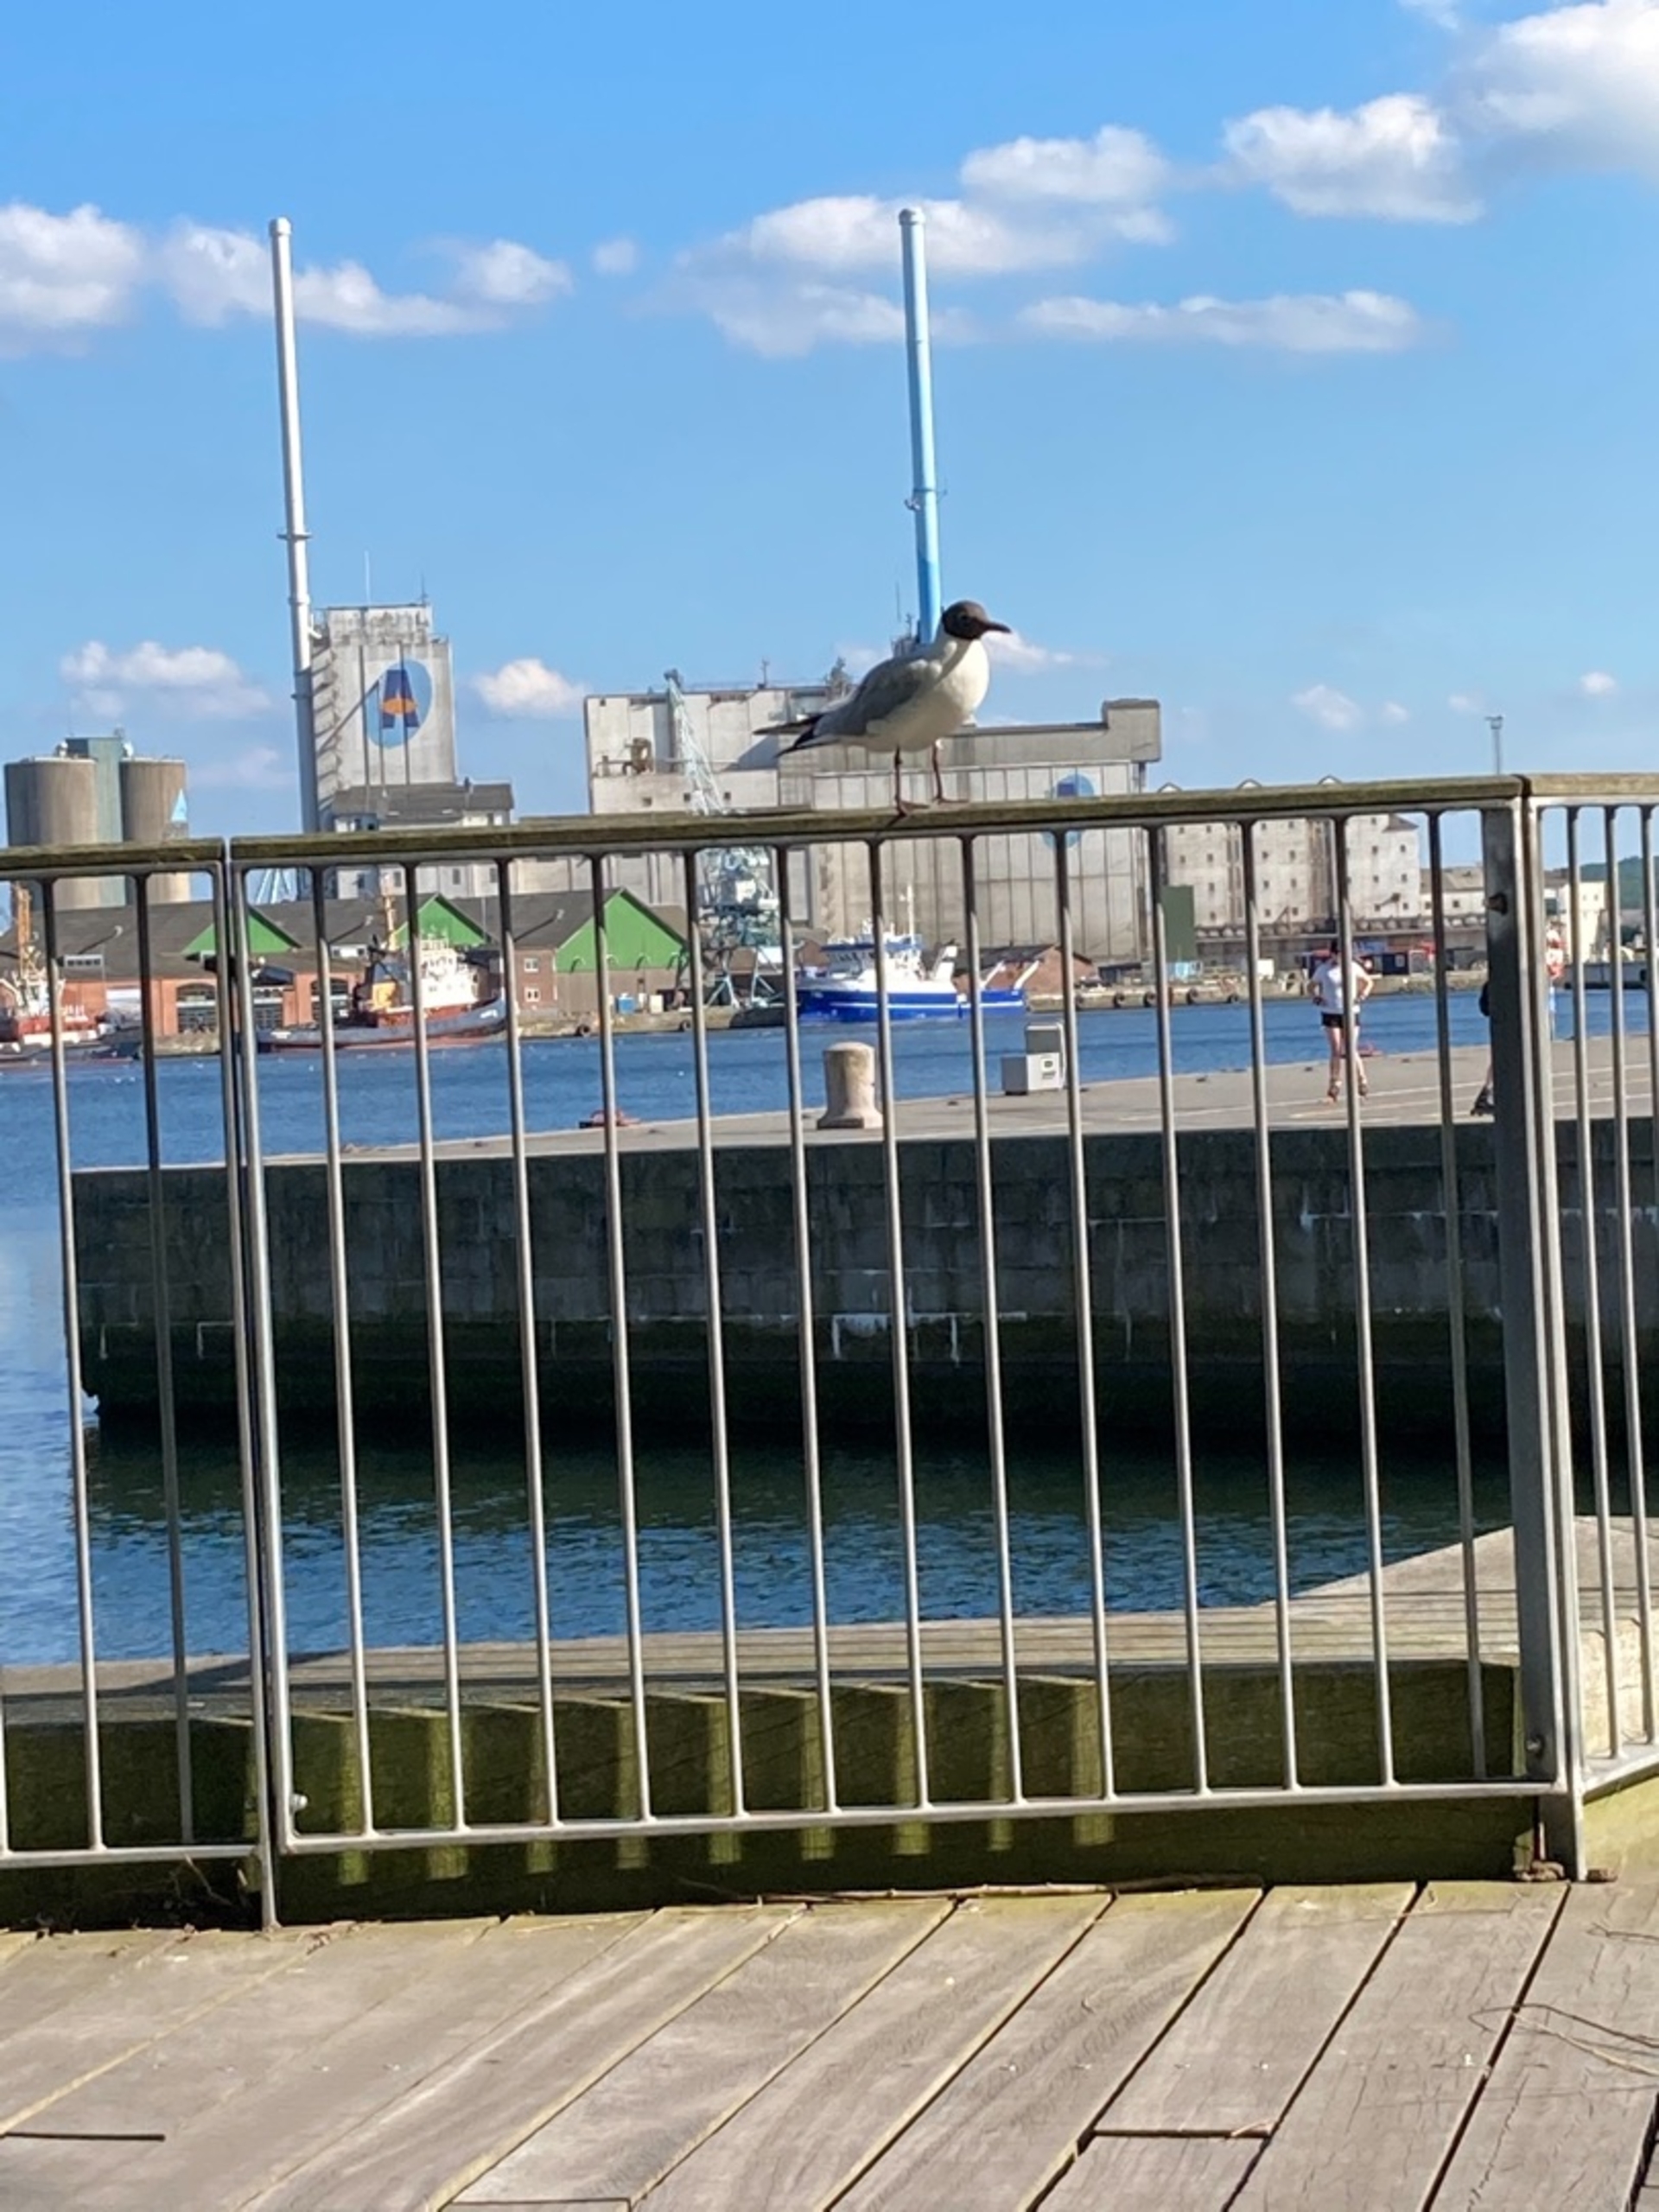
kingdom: Animalia
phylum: Chordata
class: Aves
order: Charadriiformes
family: Laridae
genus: Chroicocephalus
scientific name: Chroicocephalus ridibundus
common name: Hættemåge
